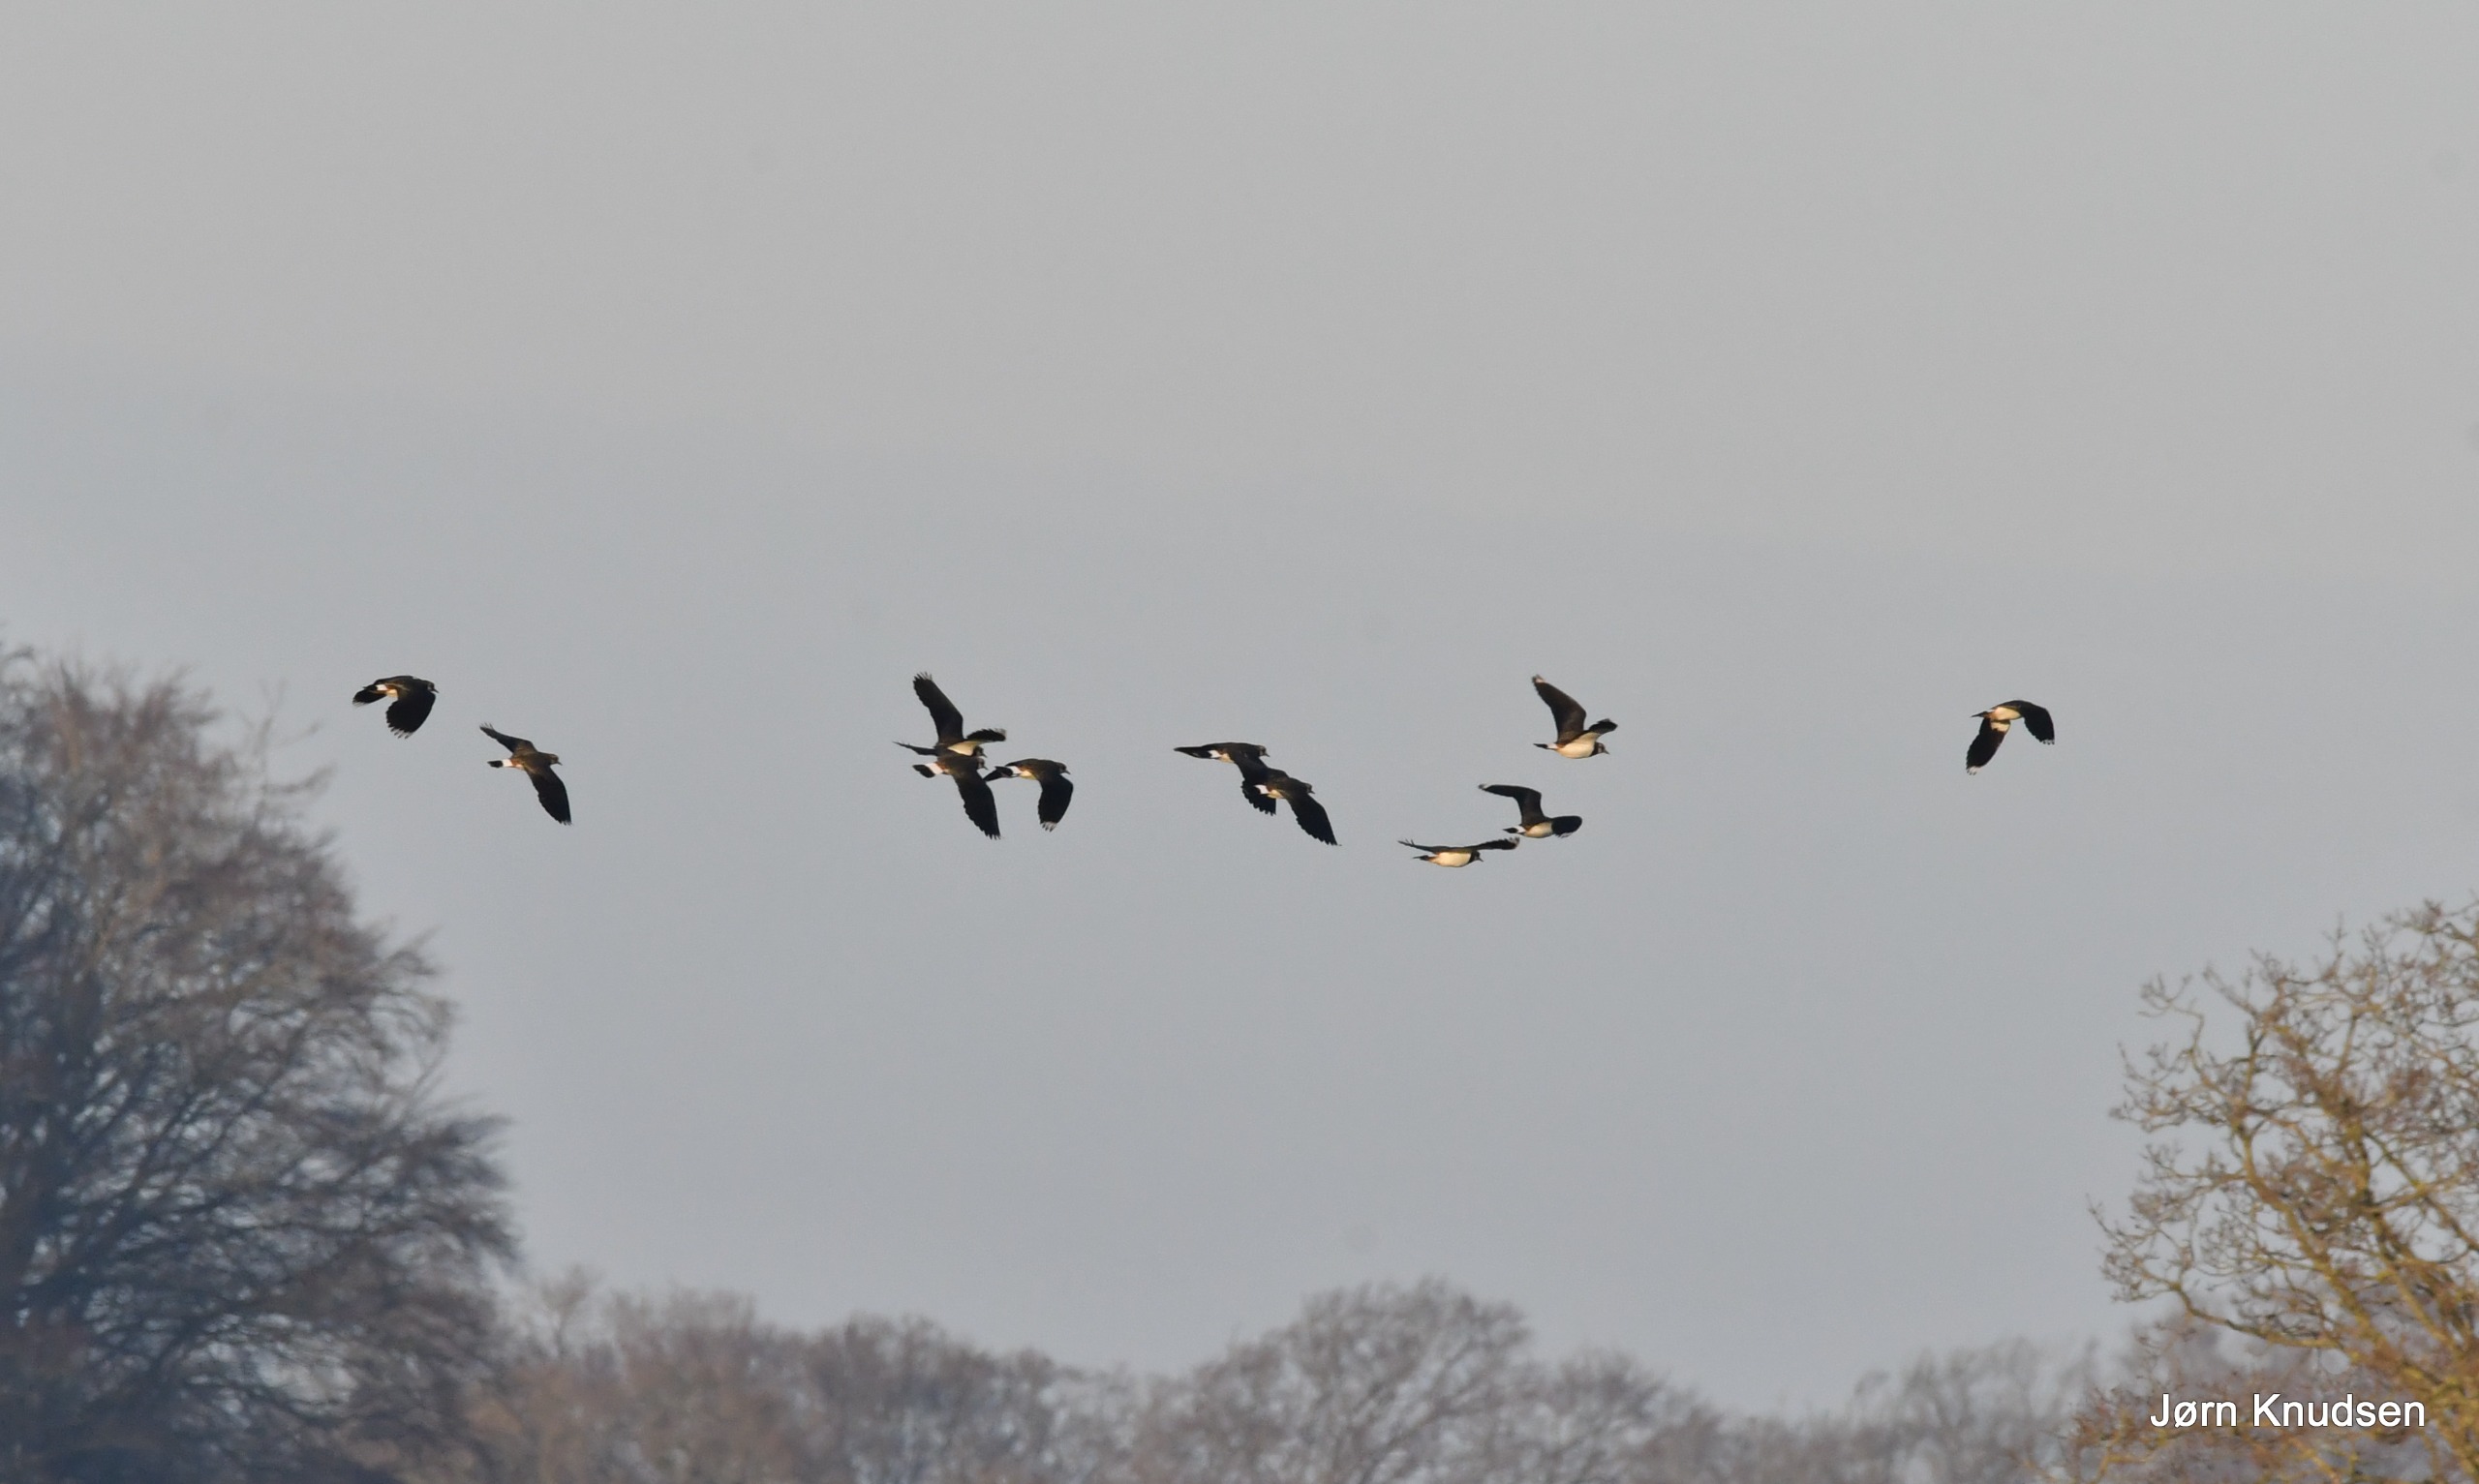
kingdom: Animalia
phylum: Chordata
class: Aves
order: Charadriiformes
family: Charadriidae
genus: Vanellus
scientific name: Vanellus vanellus
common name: Vibe
